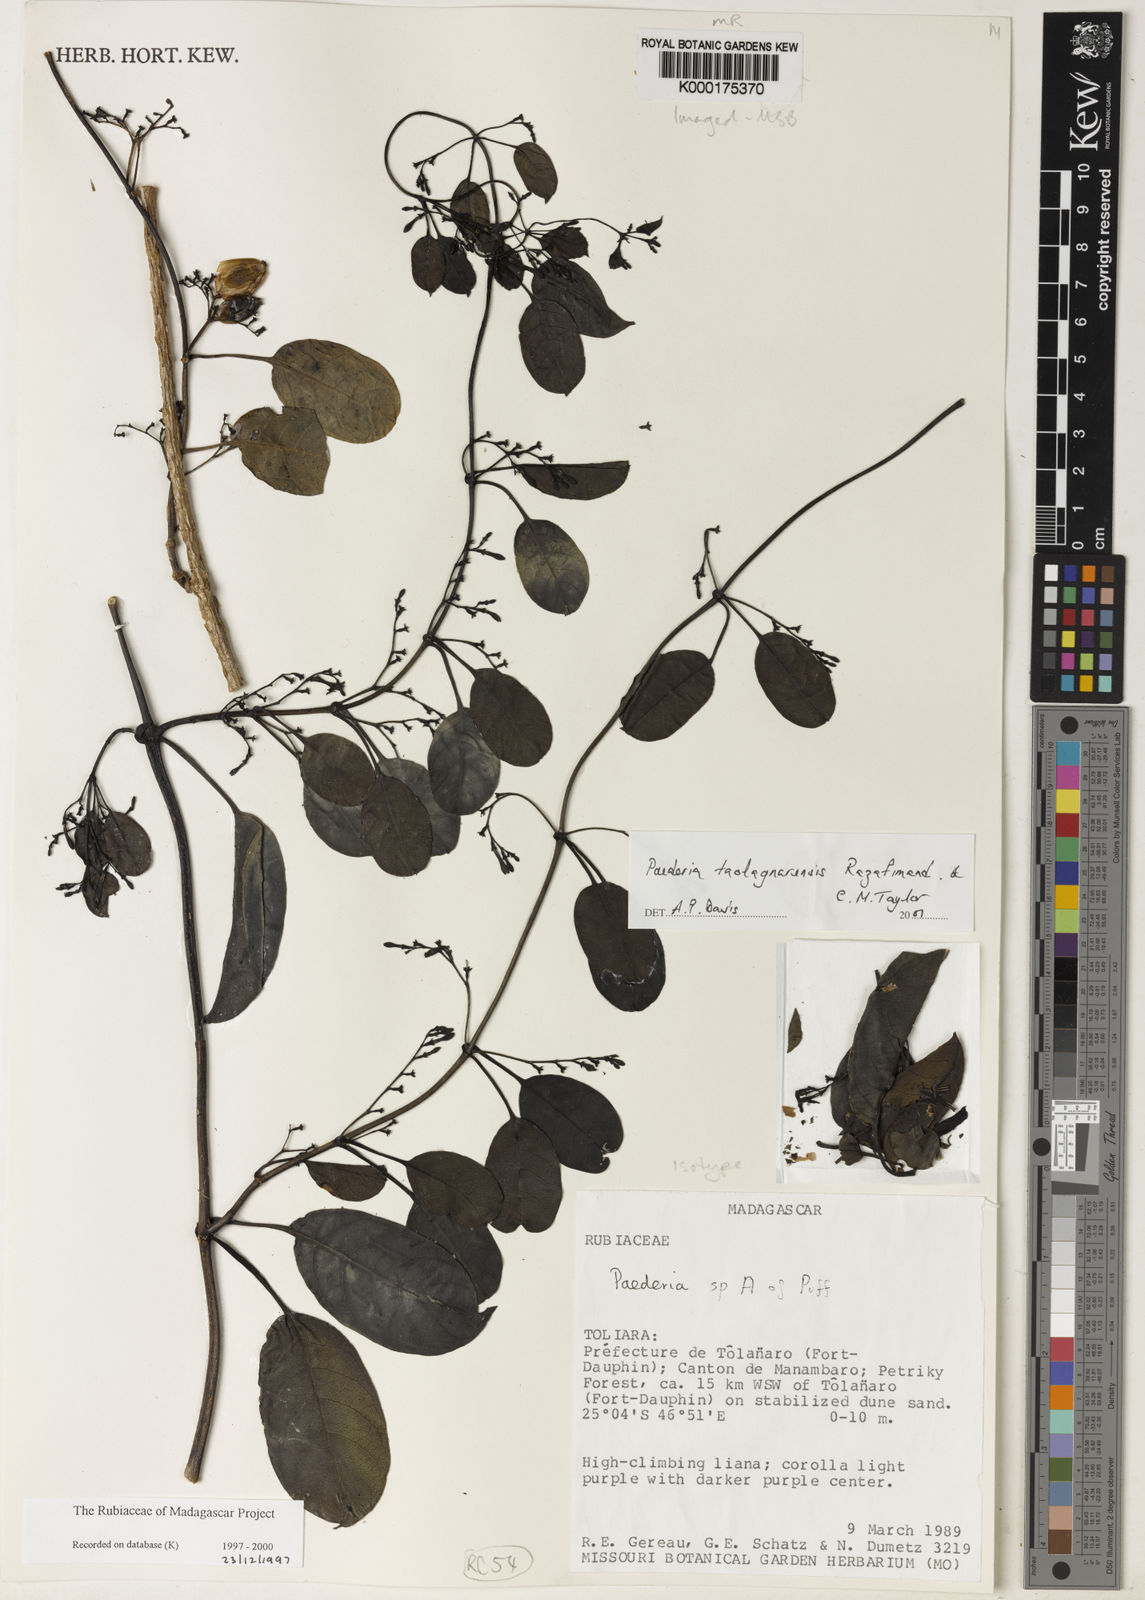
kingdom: Plantae
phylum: Tracheophyta
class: Magnoliopsida
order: Gentianales
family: Rubiaceae
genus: Paederia
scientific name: Paederia taolagnarensis
